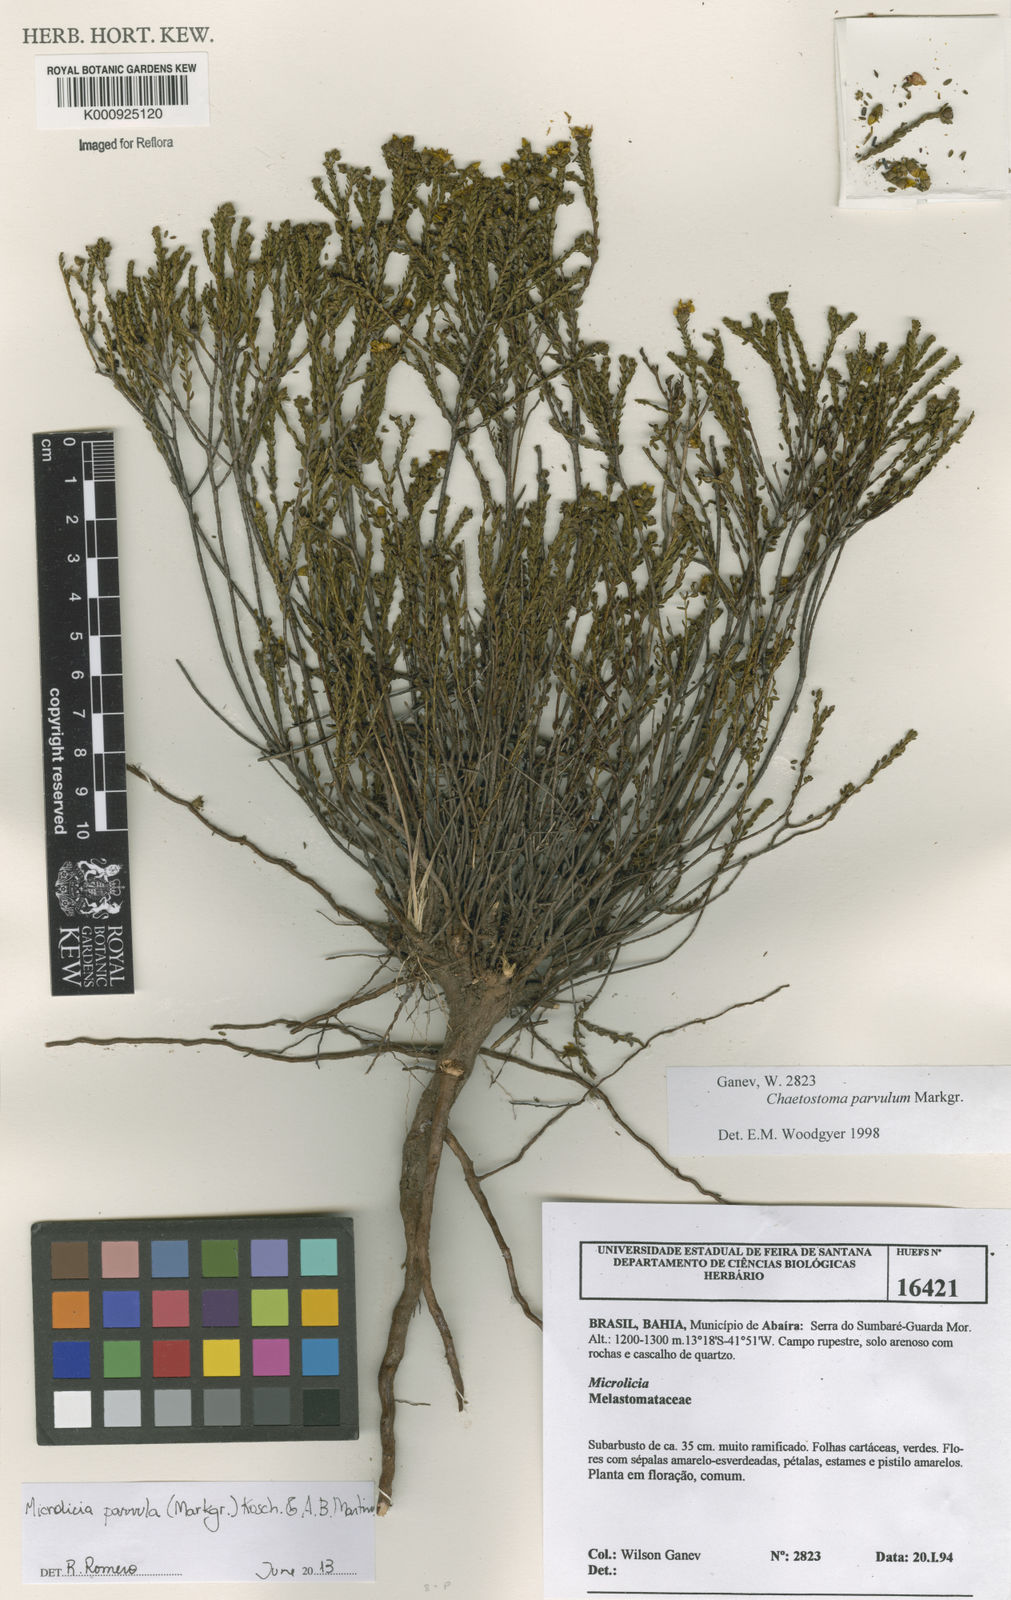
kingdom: Plantae
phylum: Tracheophyta
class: Magnoliopsida
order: Myrtales
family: Melastomataceae
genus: Microlicia
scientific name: Microlicia parvula
